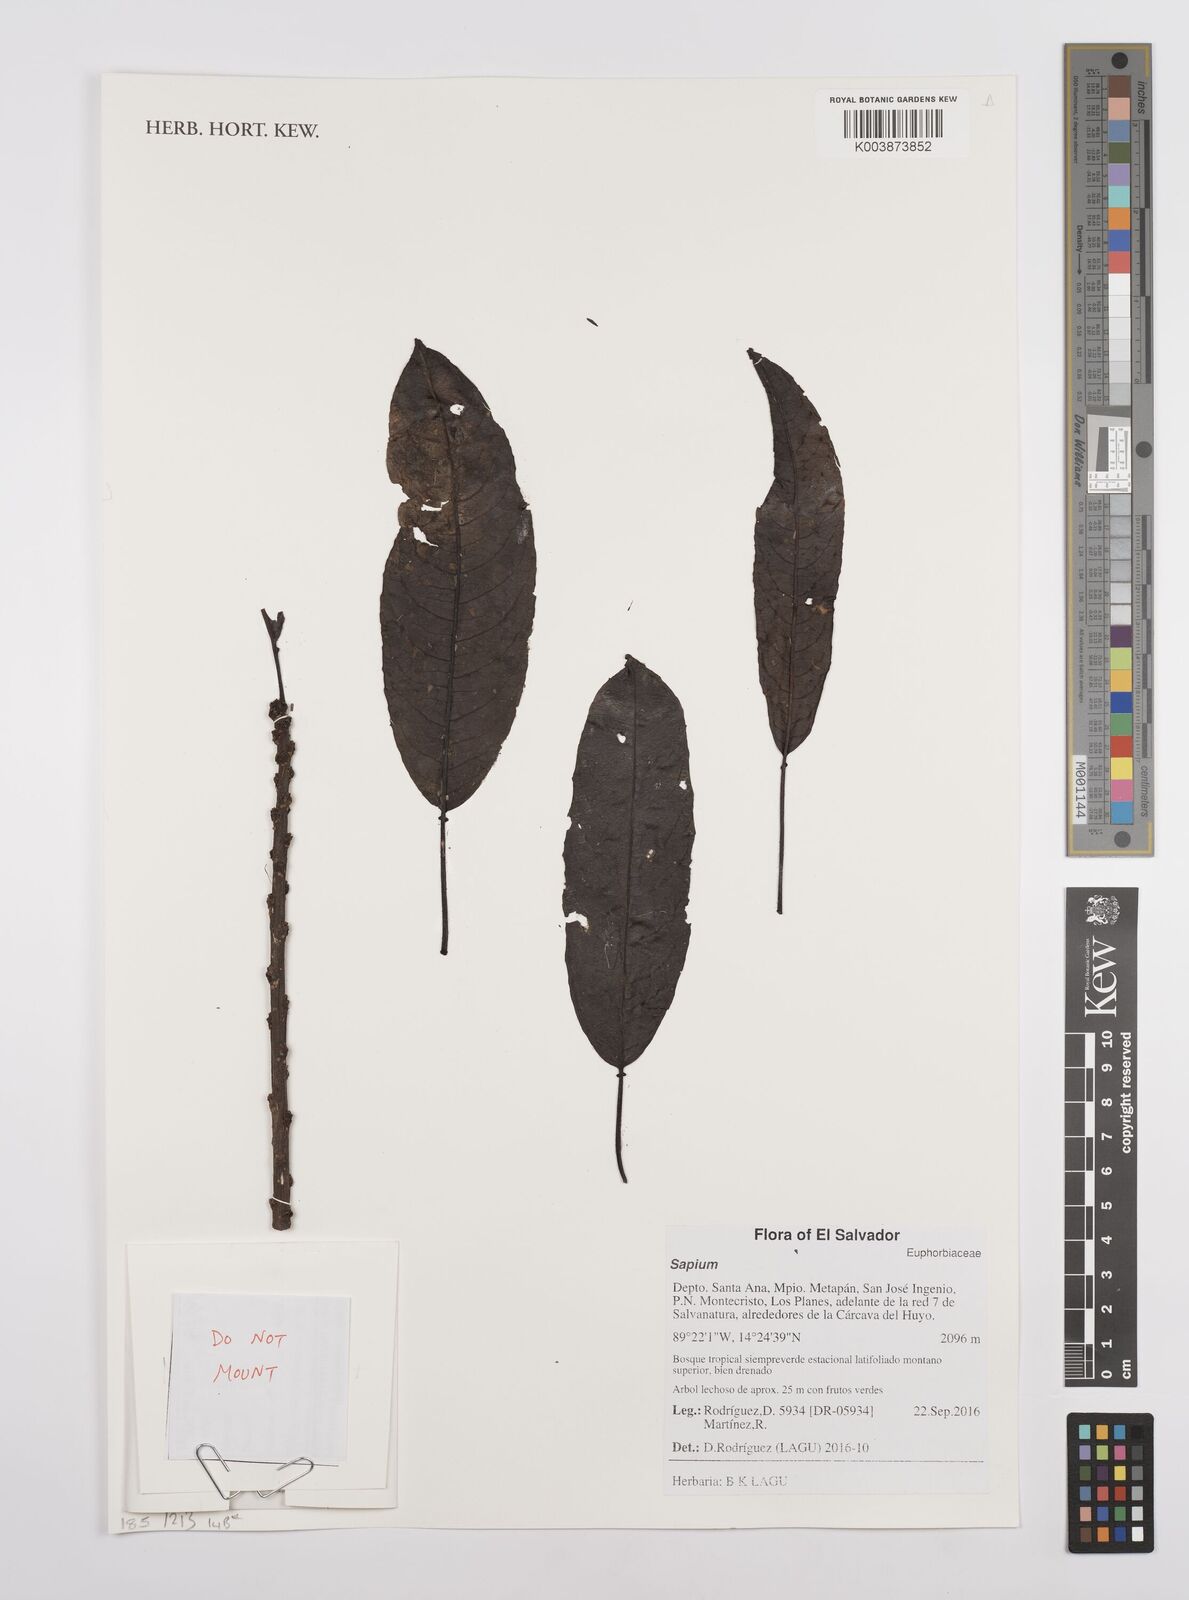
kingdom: Plantae
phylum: Tracheophyta
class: Magnoliopsida
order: Malpighiales
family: Euphorbiaceae
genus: Sapium
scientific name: Sapium
